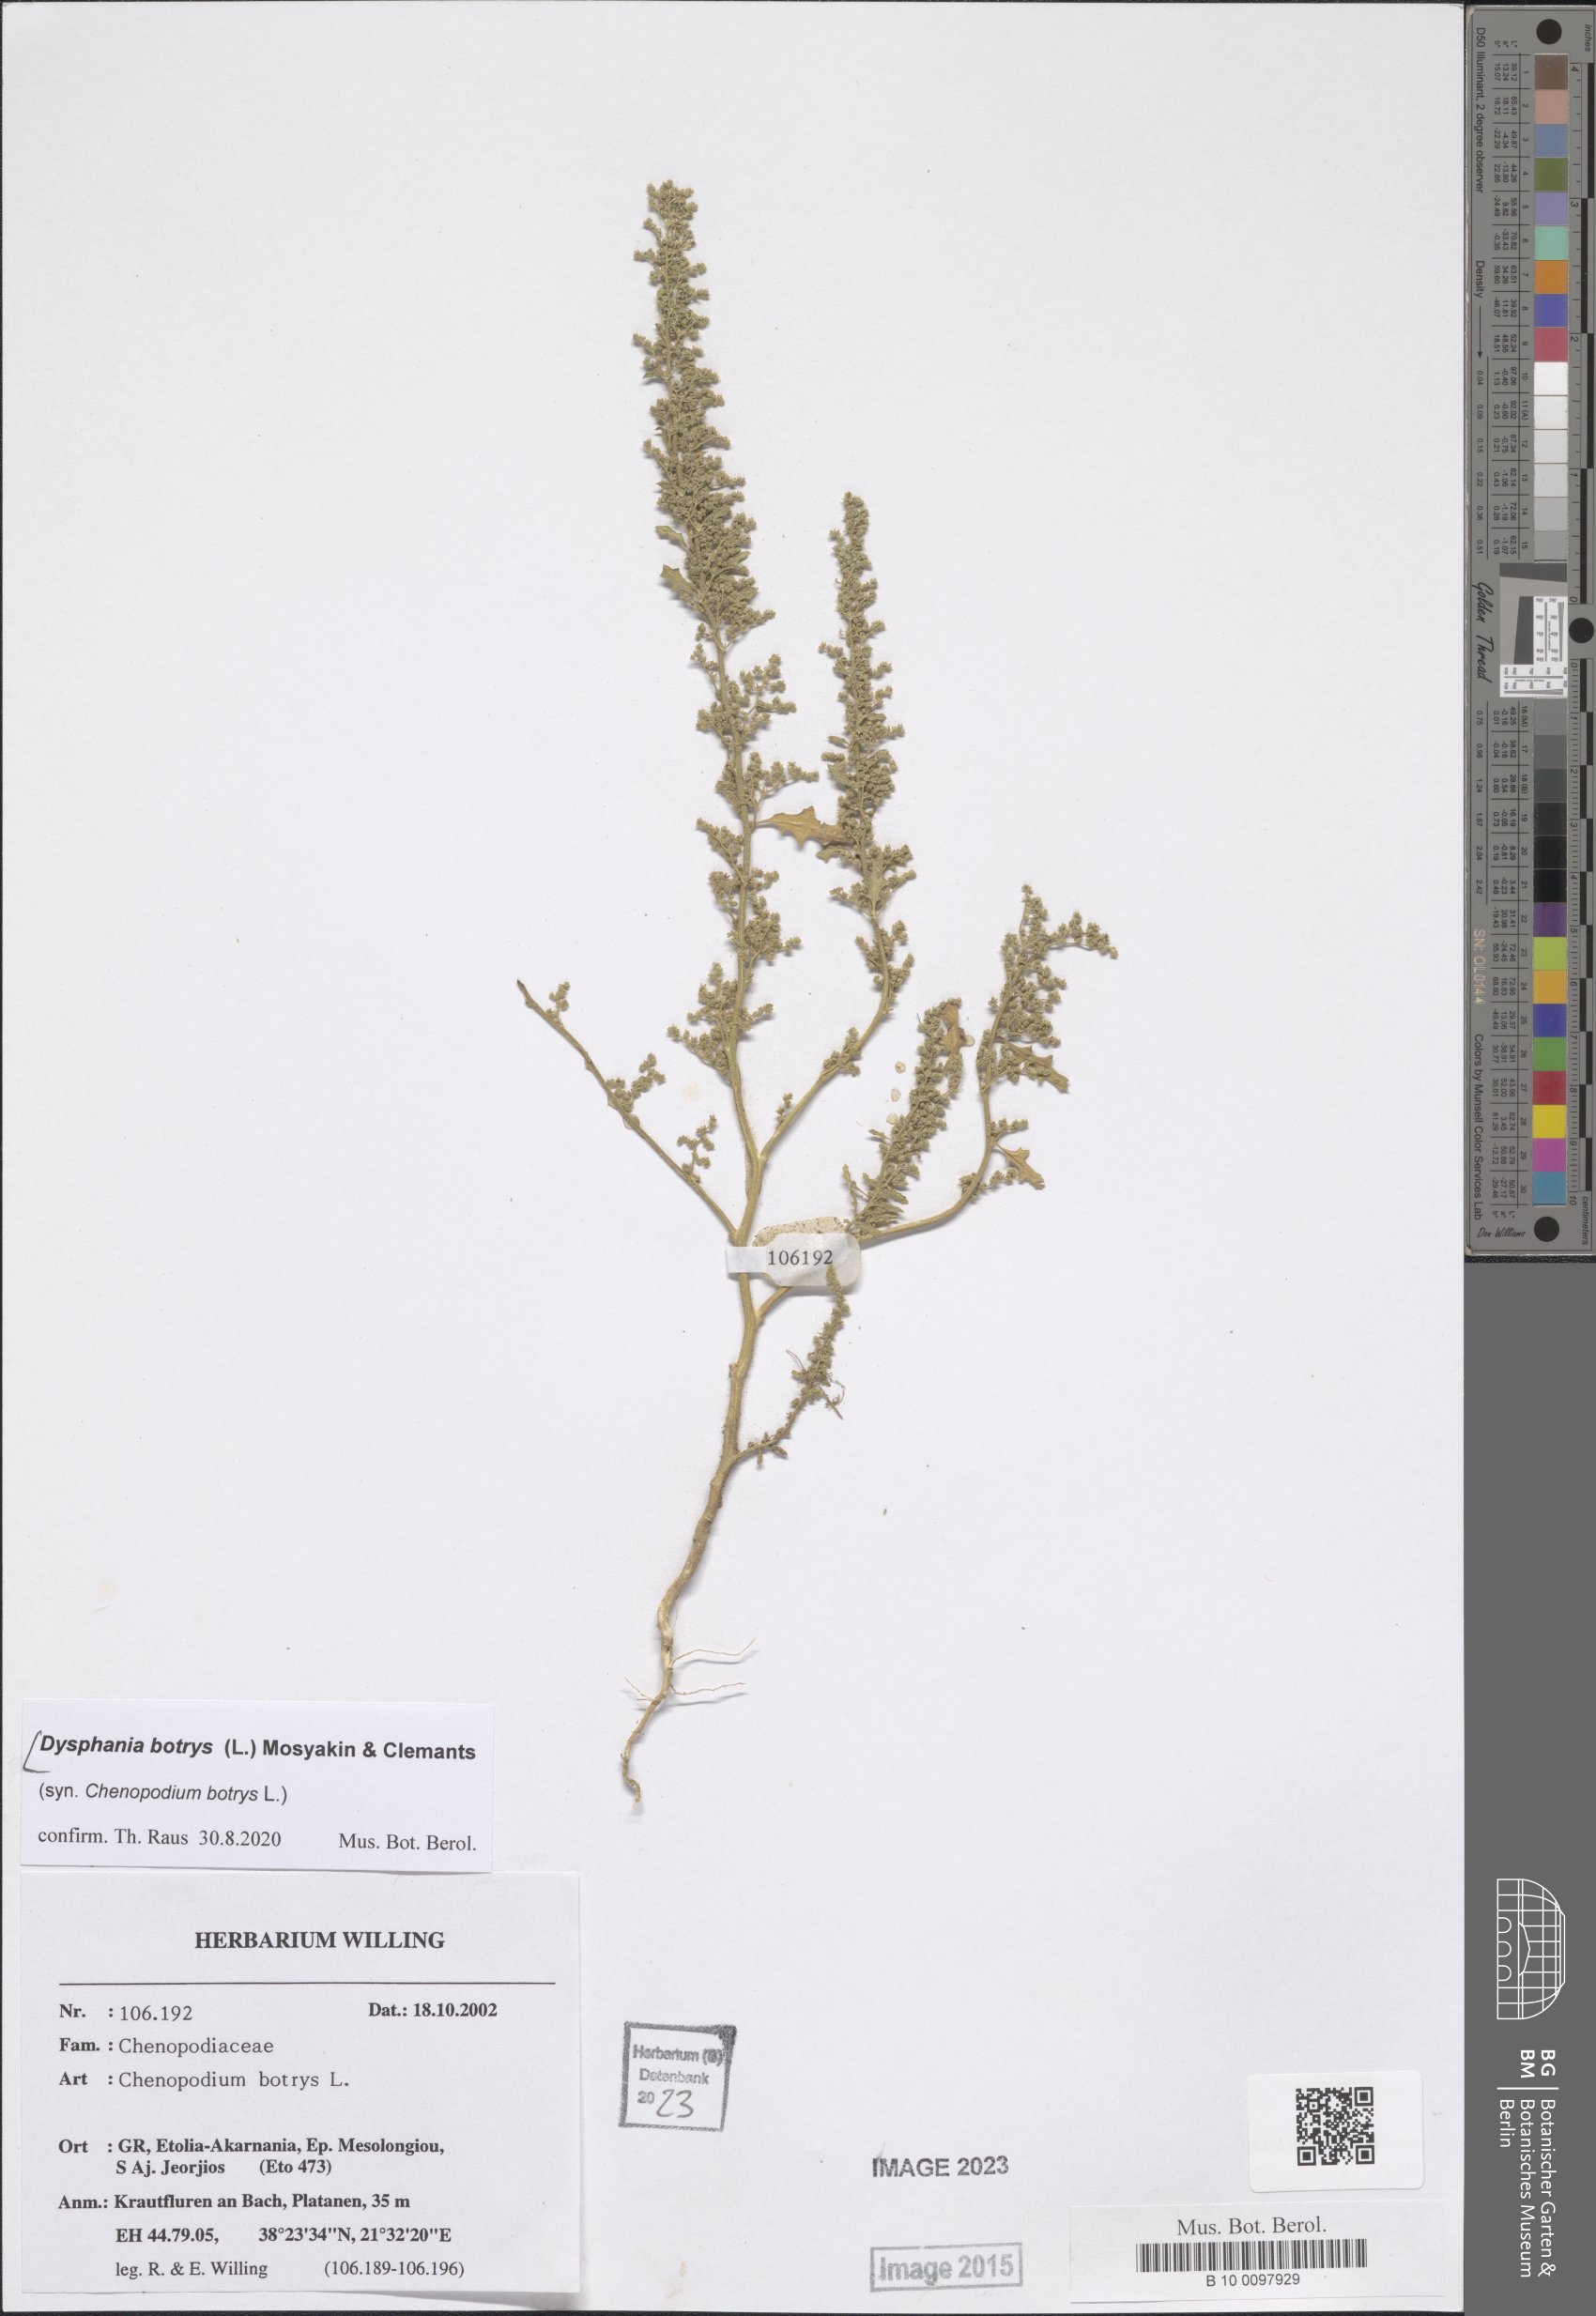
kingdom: Plantae
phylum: Tracheophyta
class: Magnoliopsida
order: Caryophyllales
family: Amaranthaceae
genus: Dysphania
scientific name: Dysphania botrys
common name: Feather-geranium
